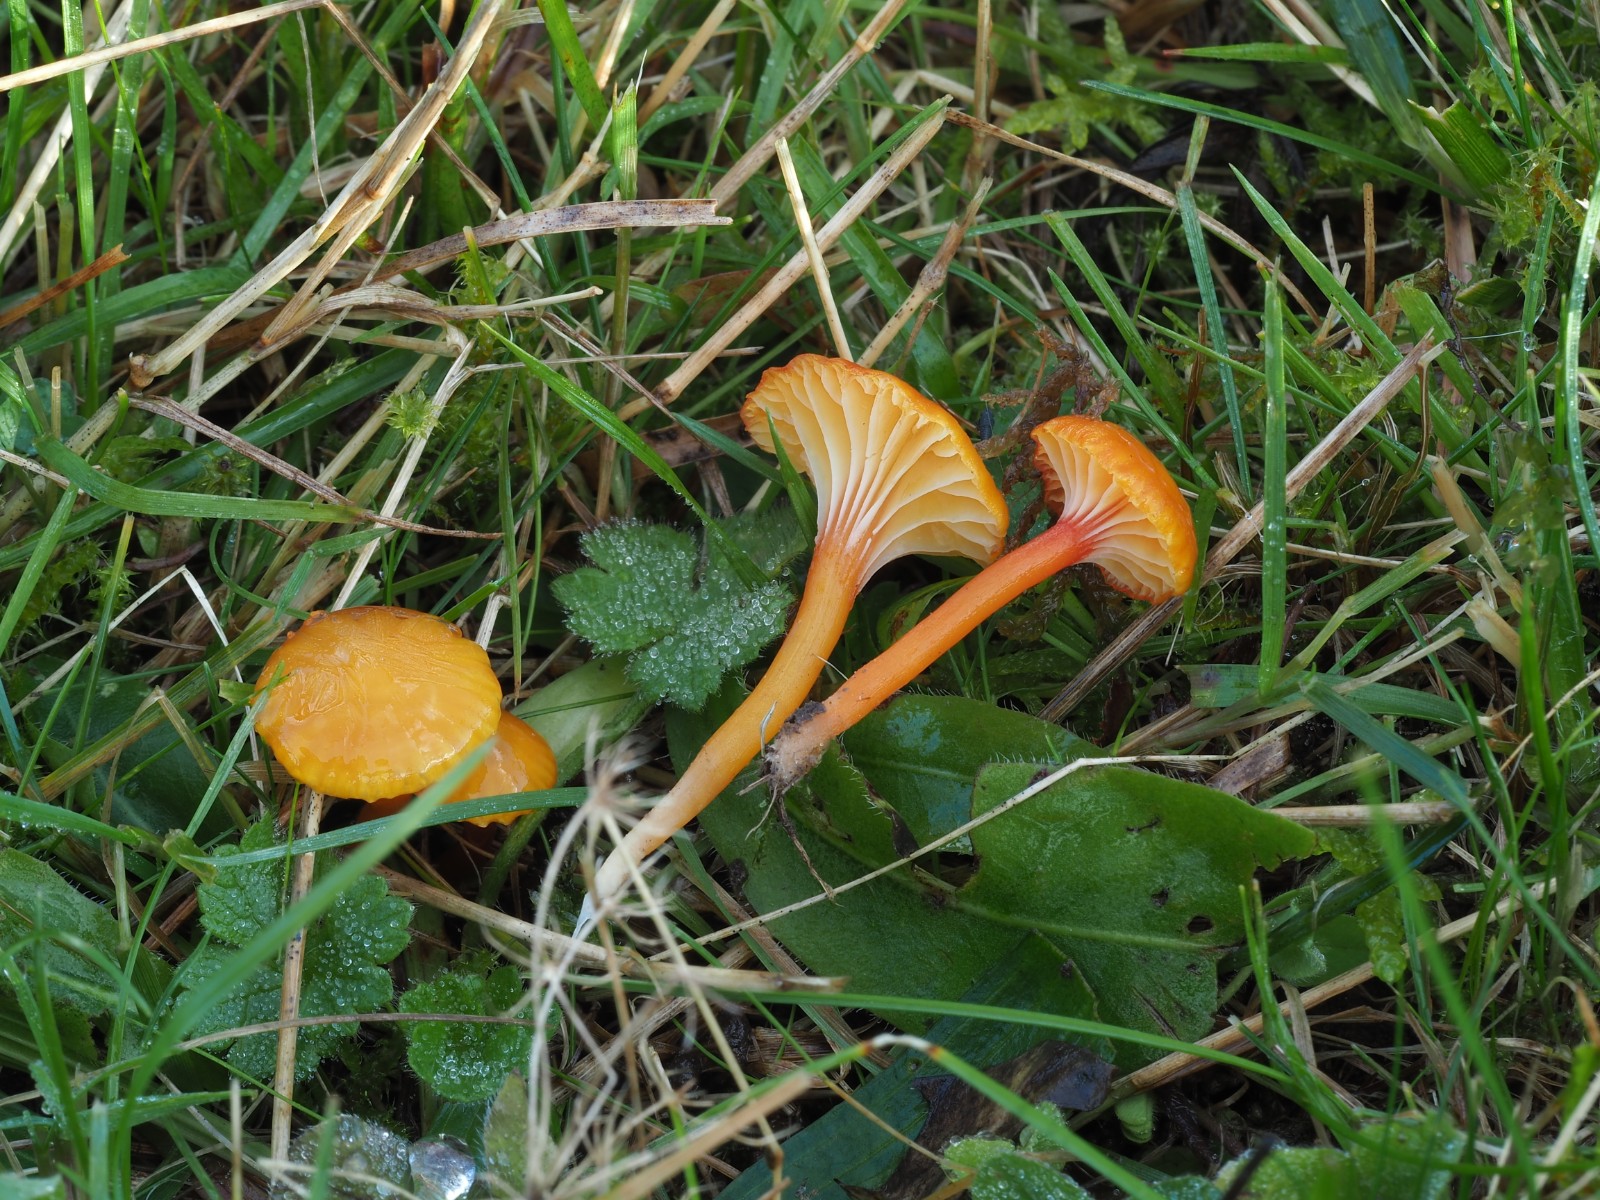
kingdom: Fungi
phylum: Basidiomycota
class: Agaricomycetes
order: Agaricales
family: Hygrophoraceae
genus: Hygrocybe
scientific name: Hygrocybe insipida
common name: liden vokshat
